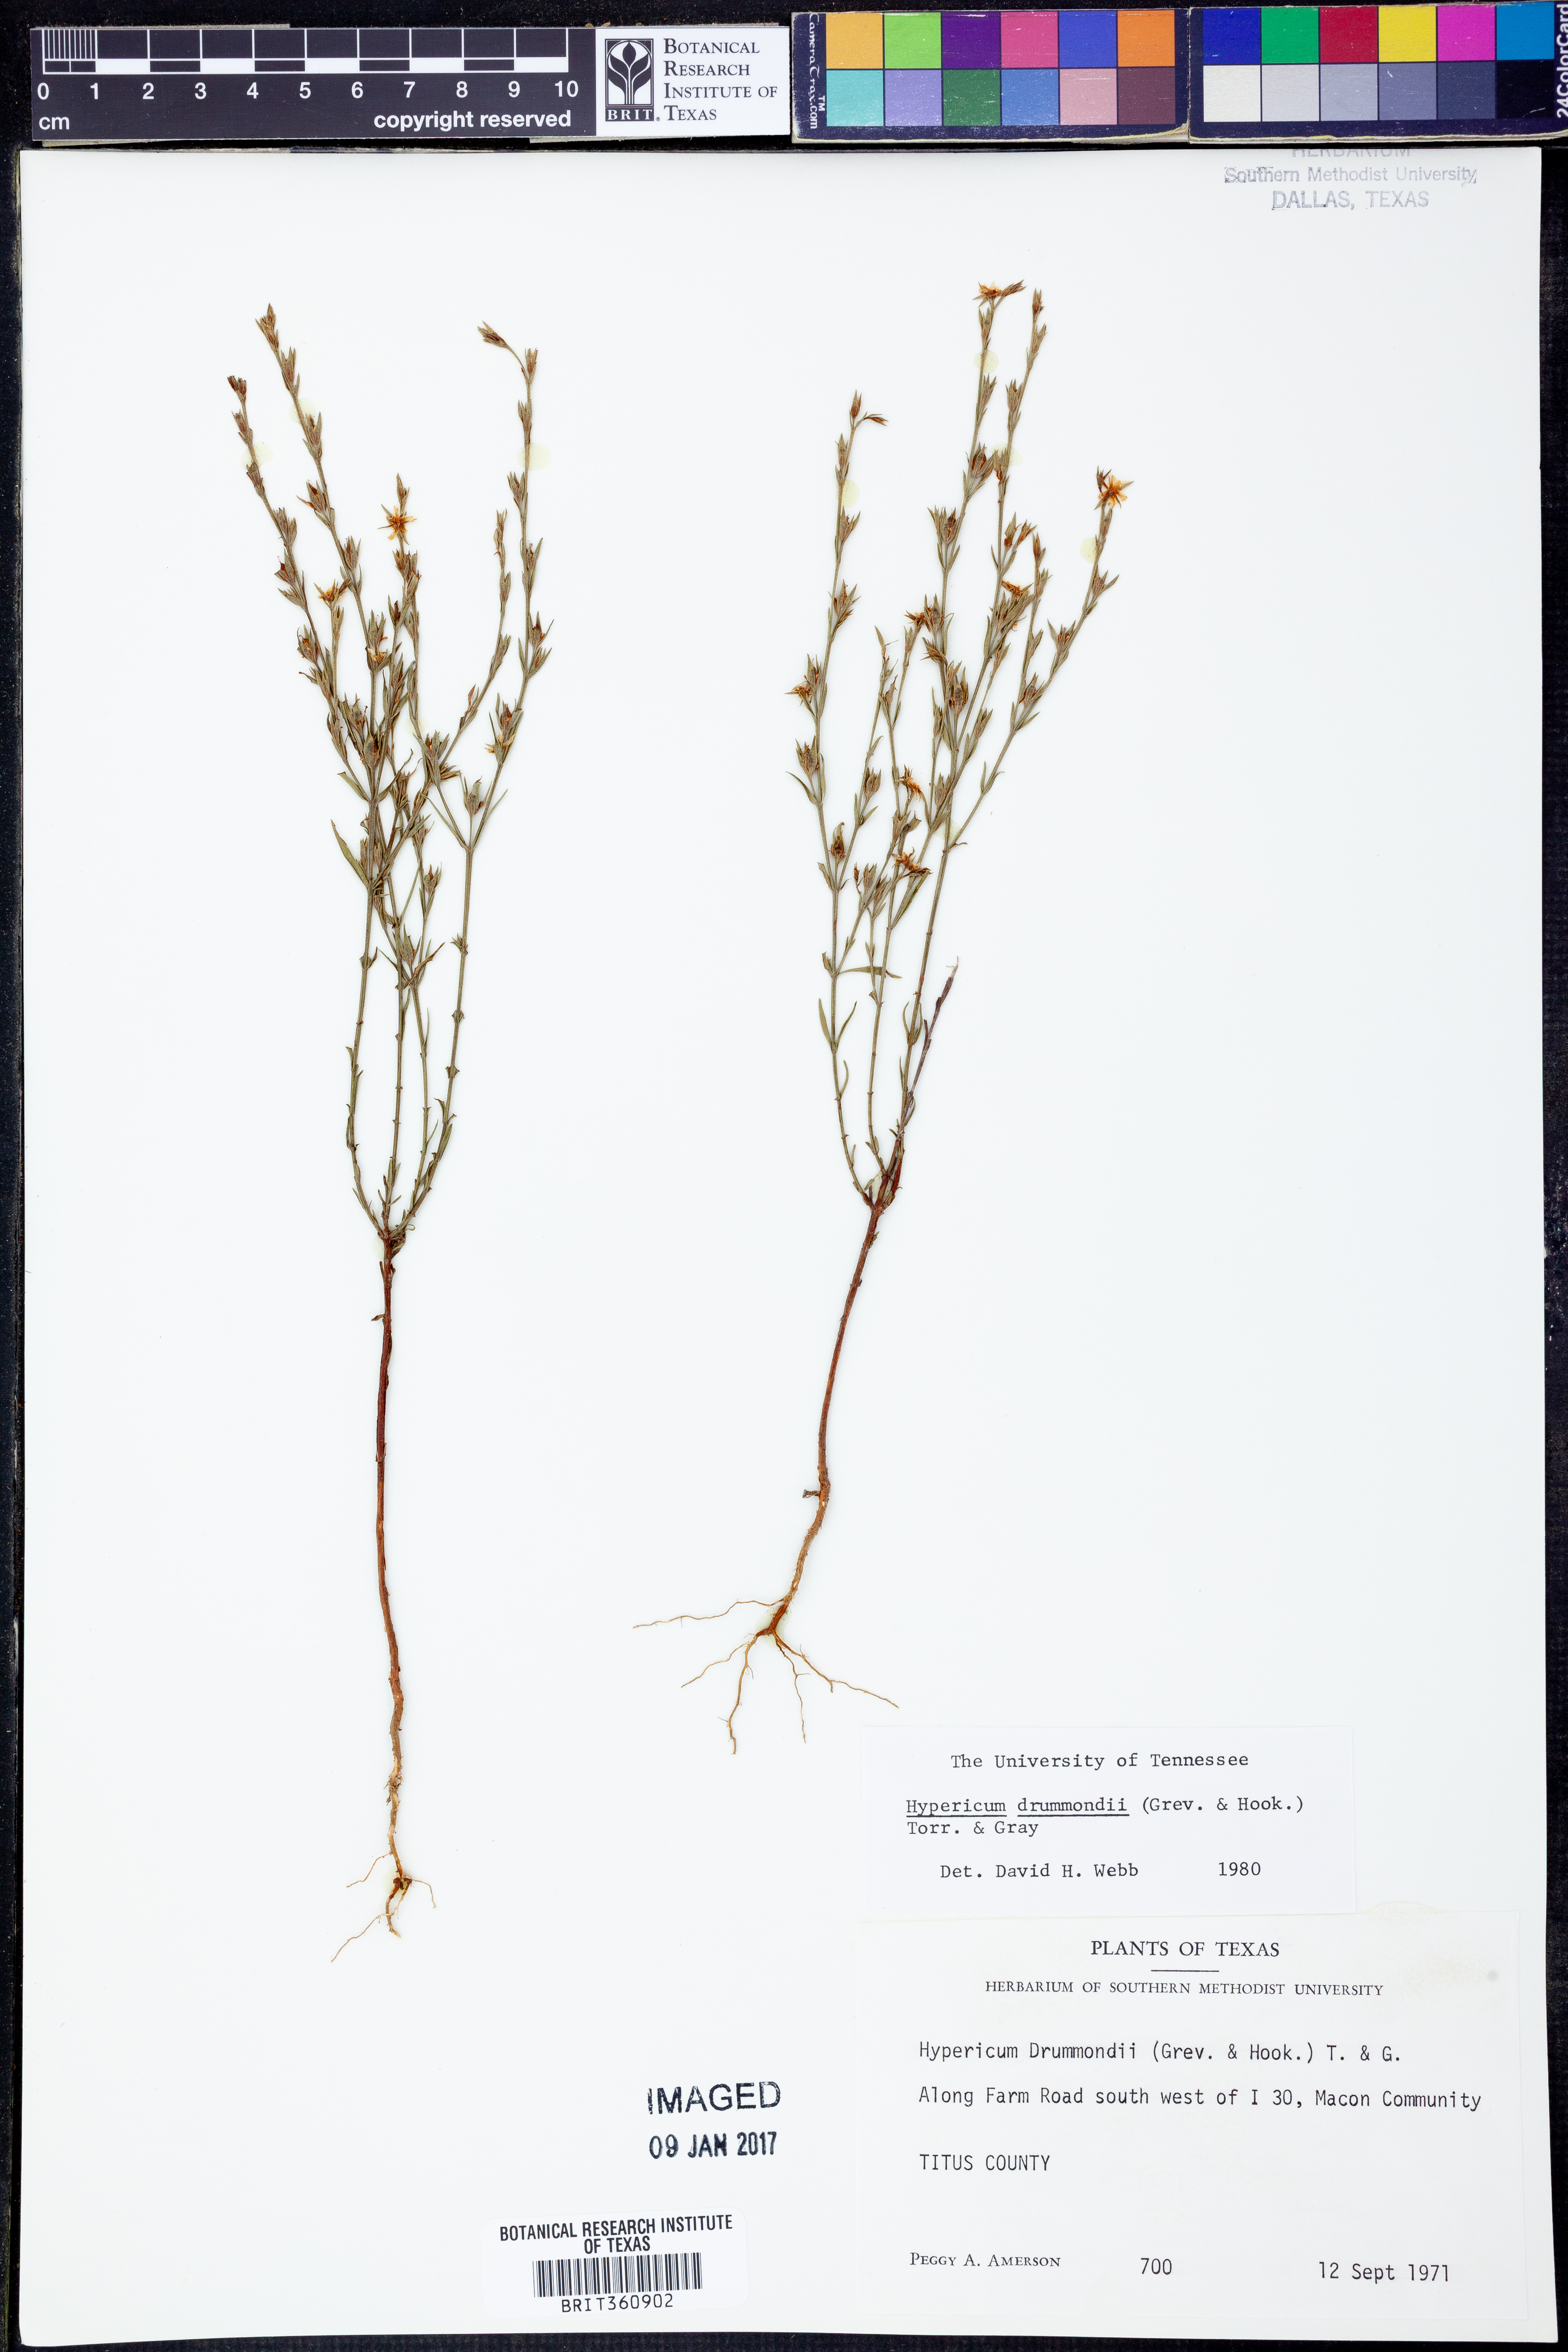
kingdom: Plantae
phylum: Tracheophyta
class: Magnoliopsida
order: Malpighiales
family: Hypericaceae
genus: Hypericum
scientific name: Hypericum drummondii
